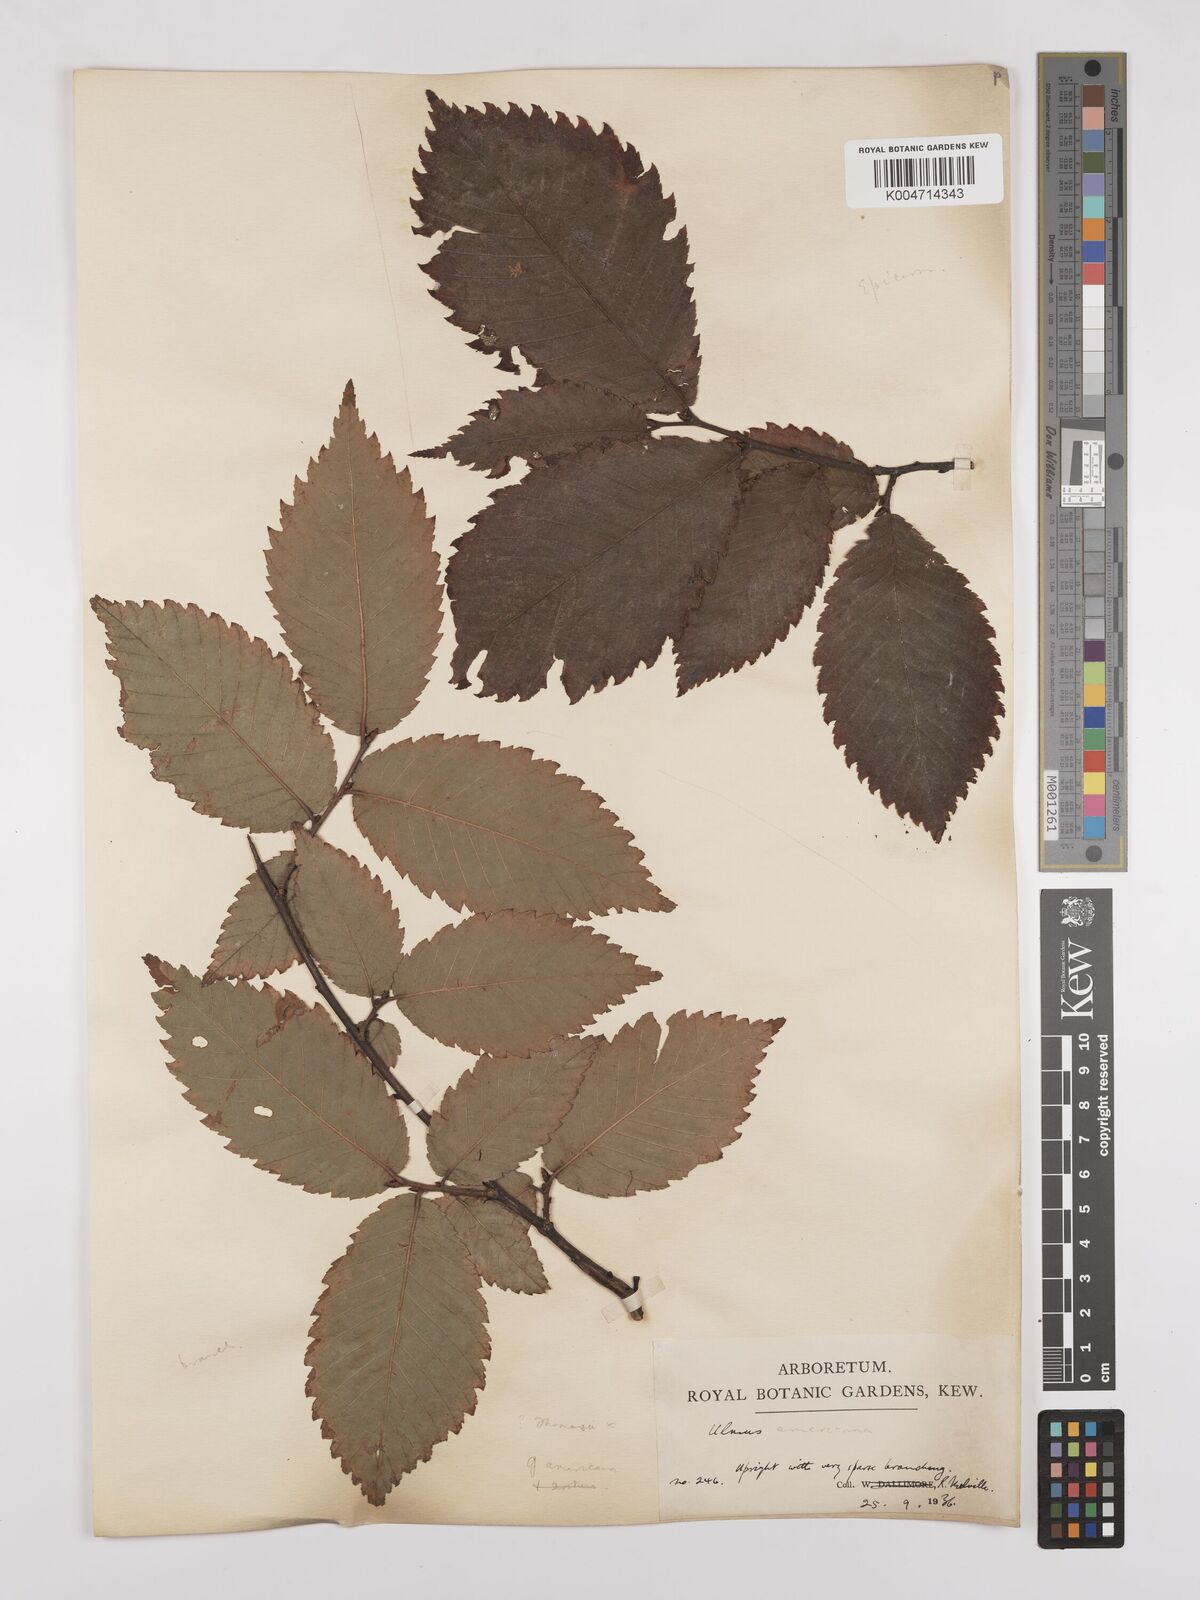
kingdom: Plantae
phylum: Tracheophyta
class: Magnoliopsida
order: Rosales
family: Ulmaceae
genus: Ulmus
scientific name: Ulmus americana
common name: American elm
